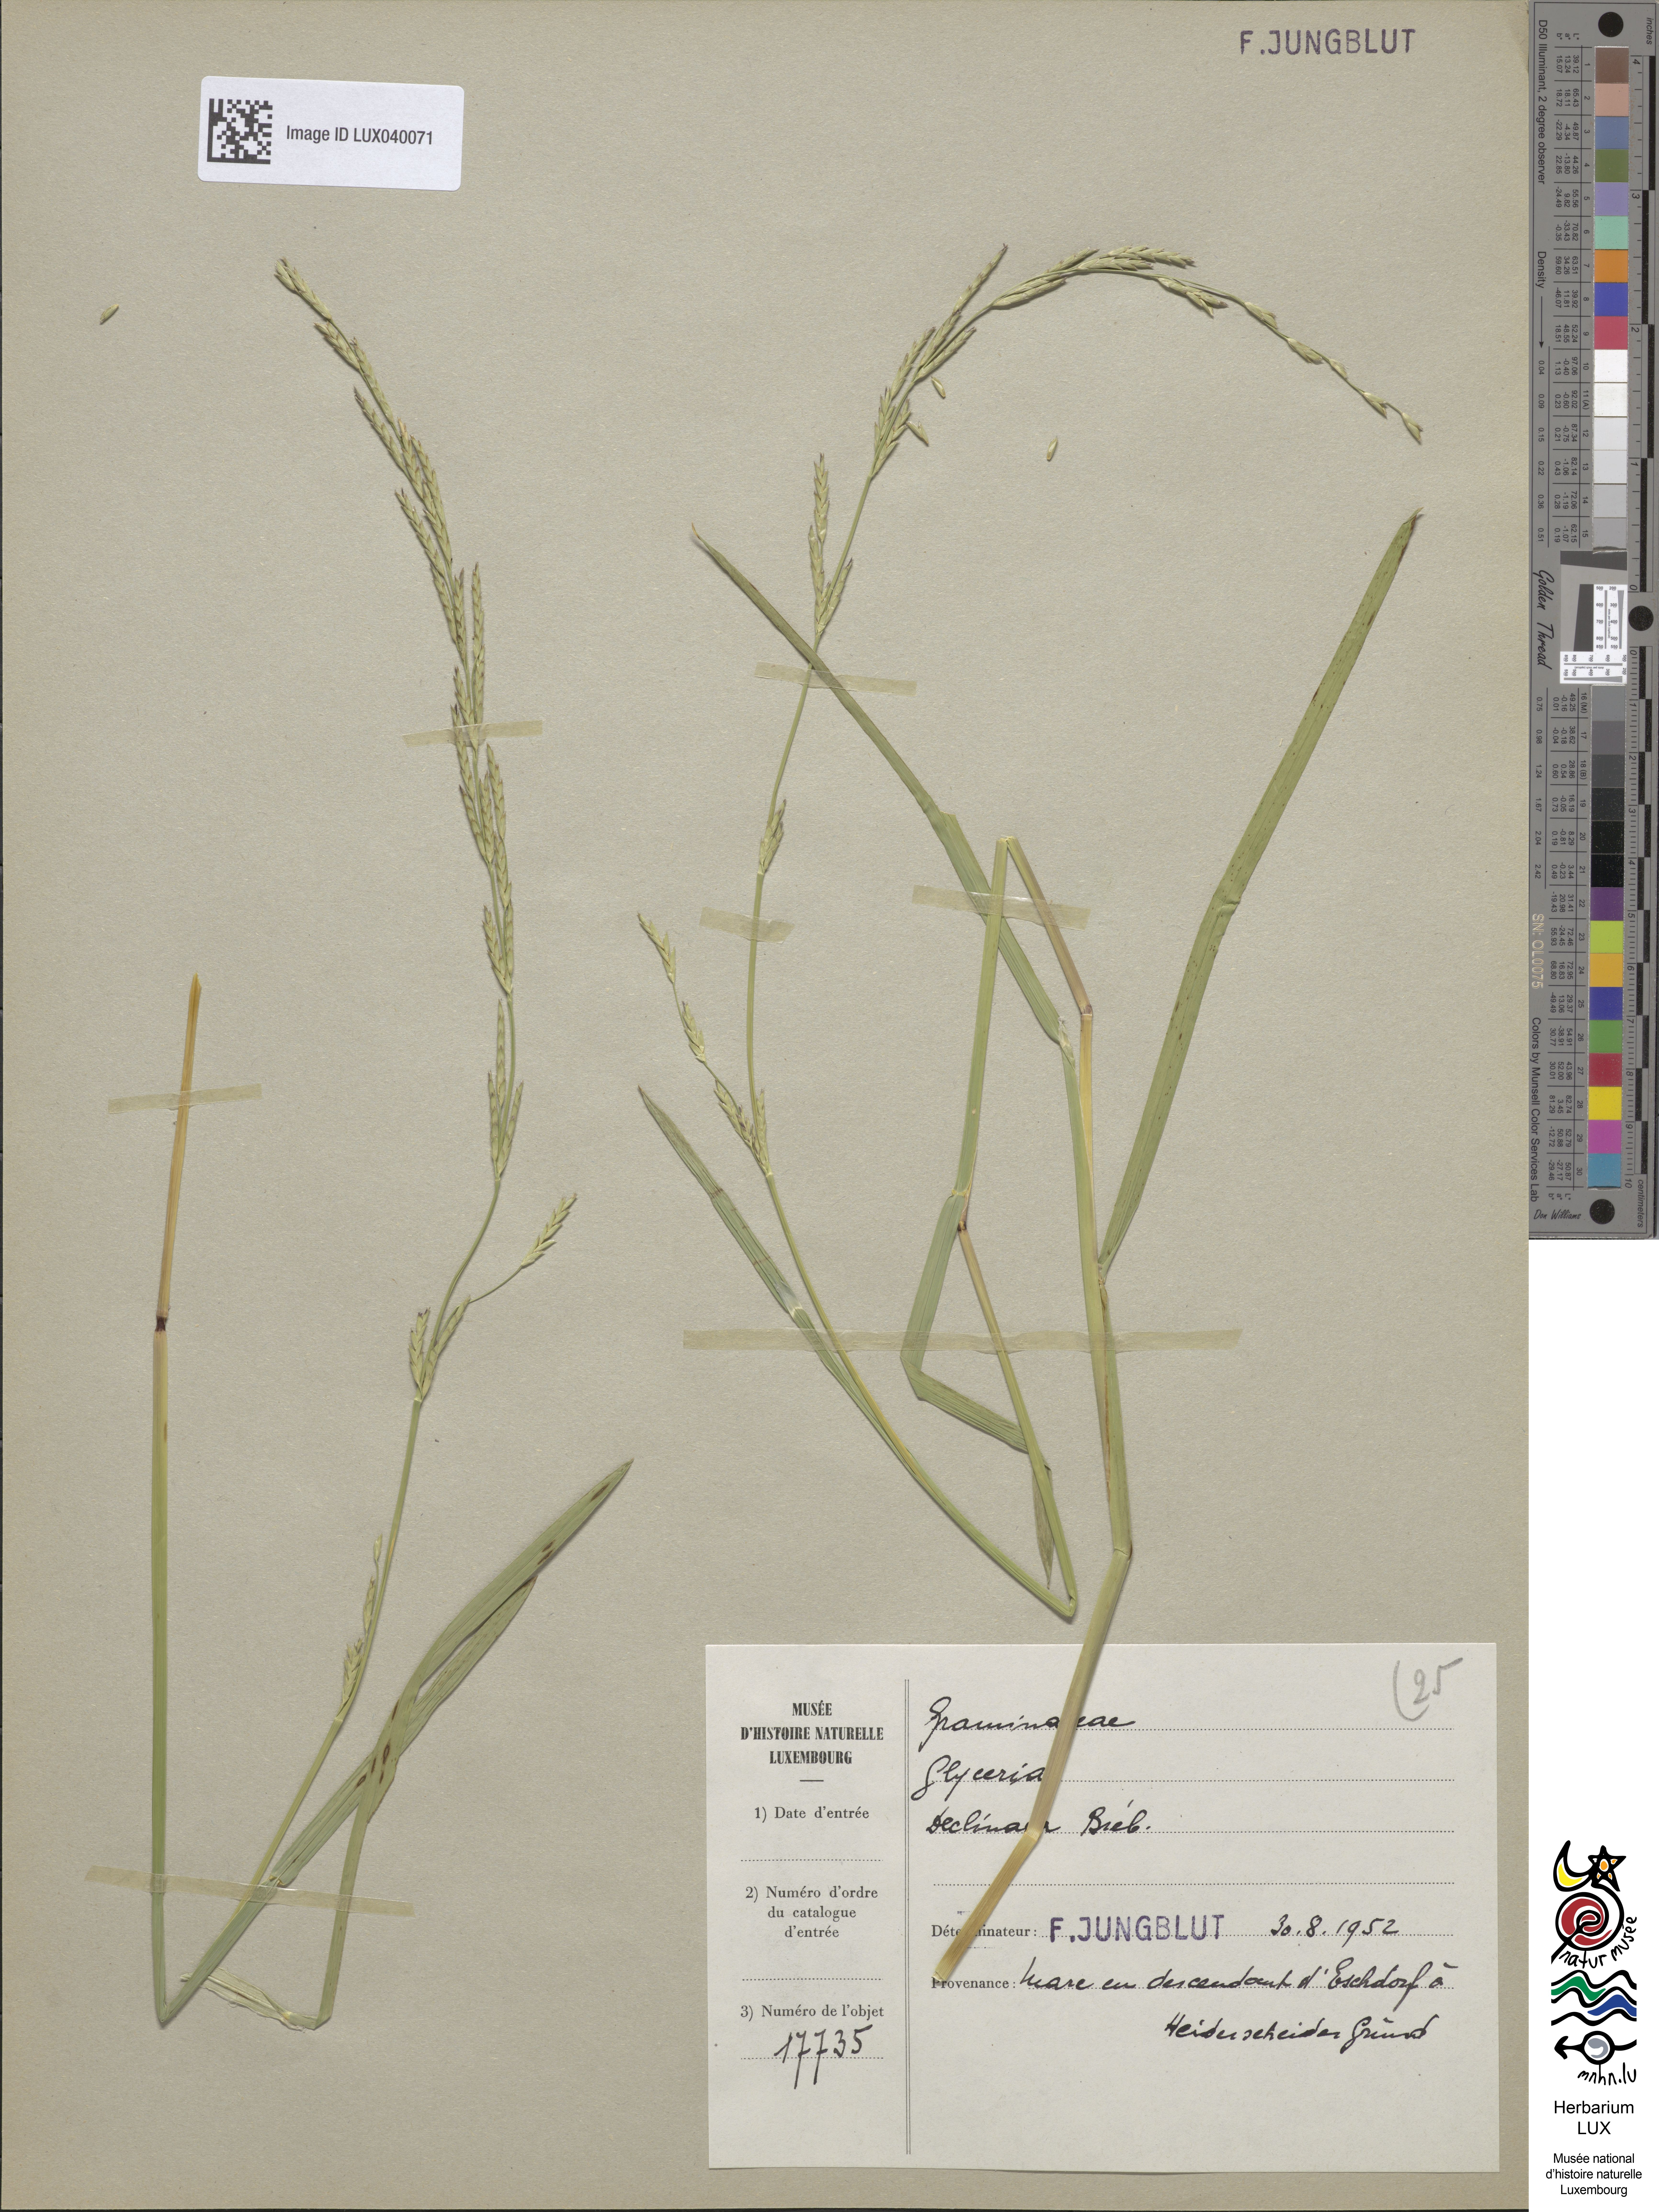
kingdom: Plantae
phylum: Tracheophyta
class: Liliopsida
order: Poales
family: Poaceae
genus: Glyceria
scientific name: Glyceria declinata
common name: Small sweet-grass
